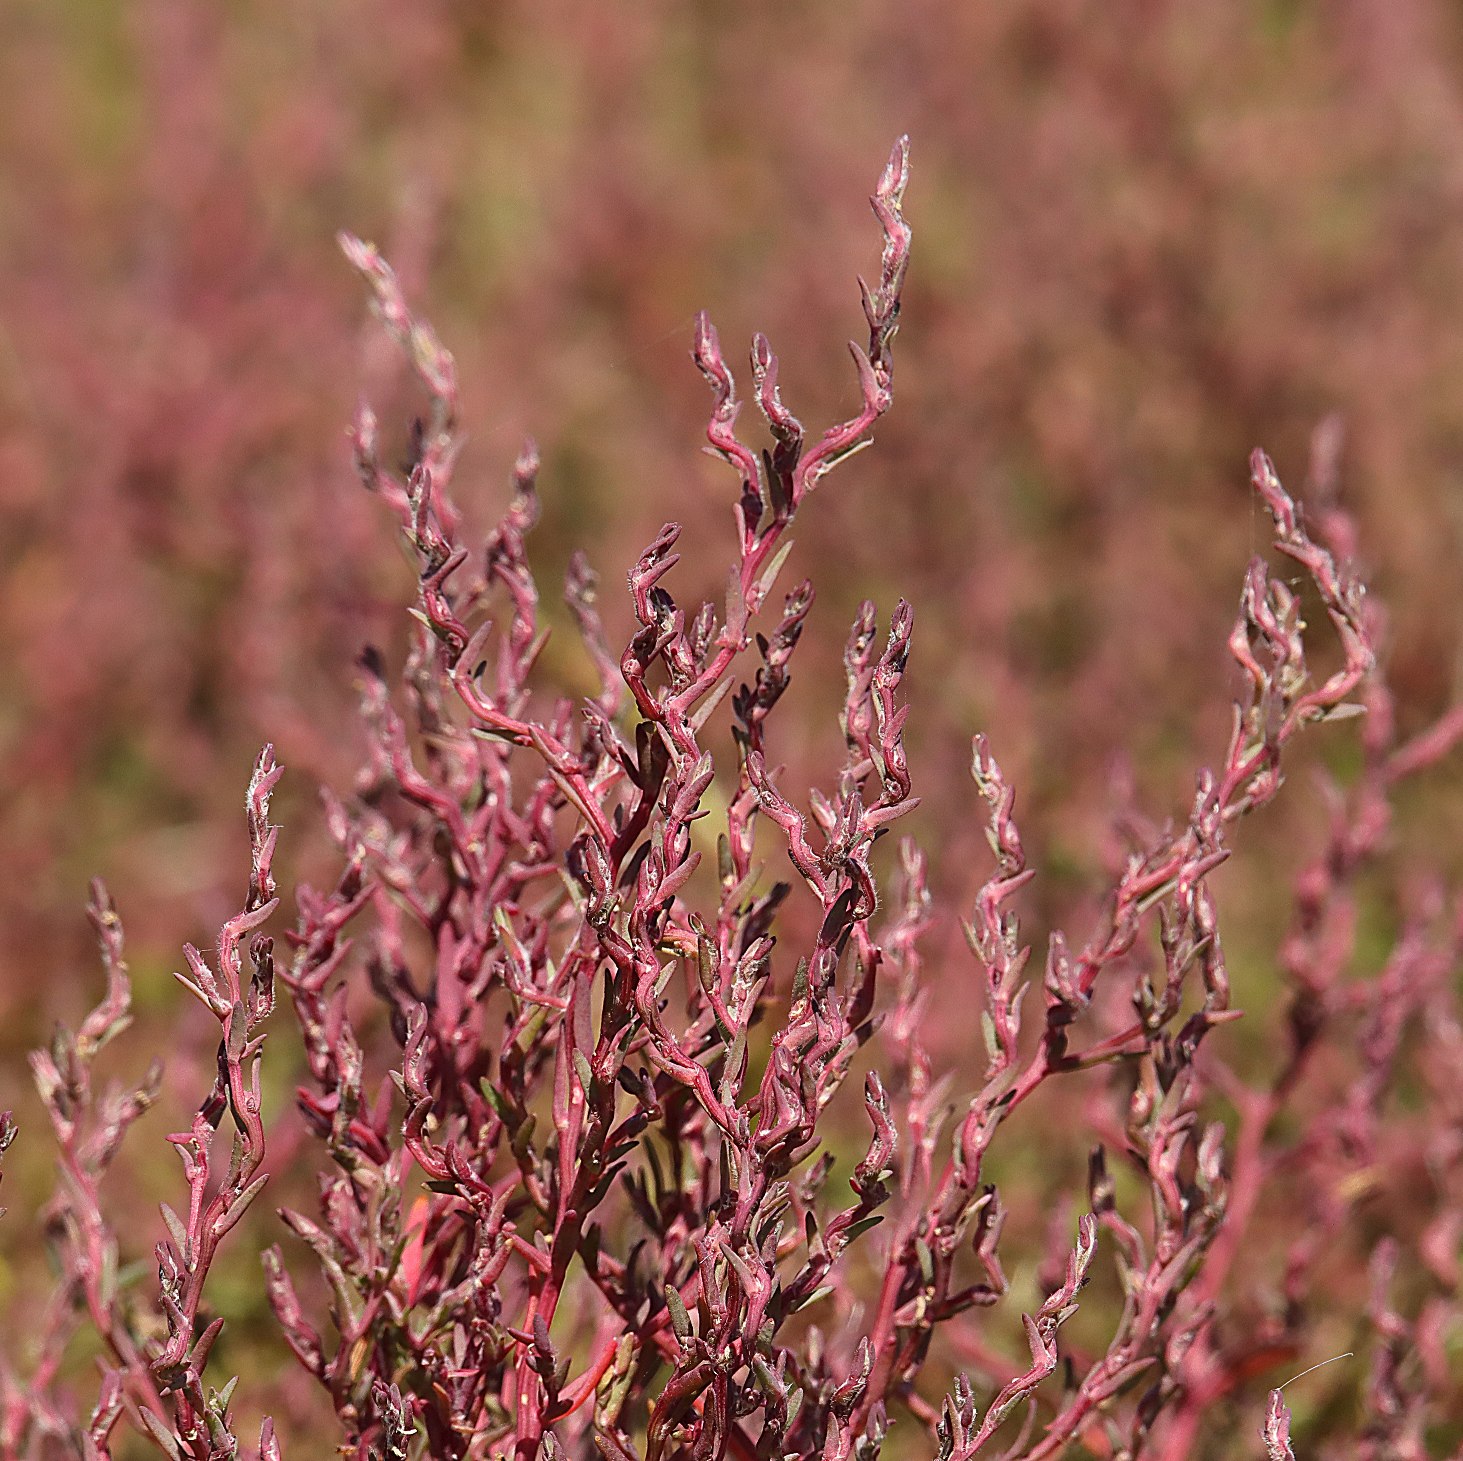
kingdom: Plantae
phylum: Tracheophyta
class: Magnoliopsida
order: Caryophyllales
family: Amaranthaceae
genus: Spirobassia
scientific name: Spirobassia hirsuta
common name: Tangurt
